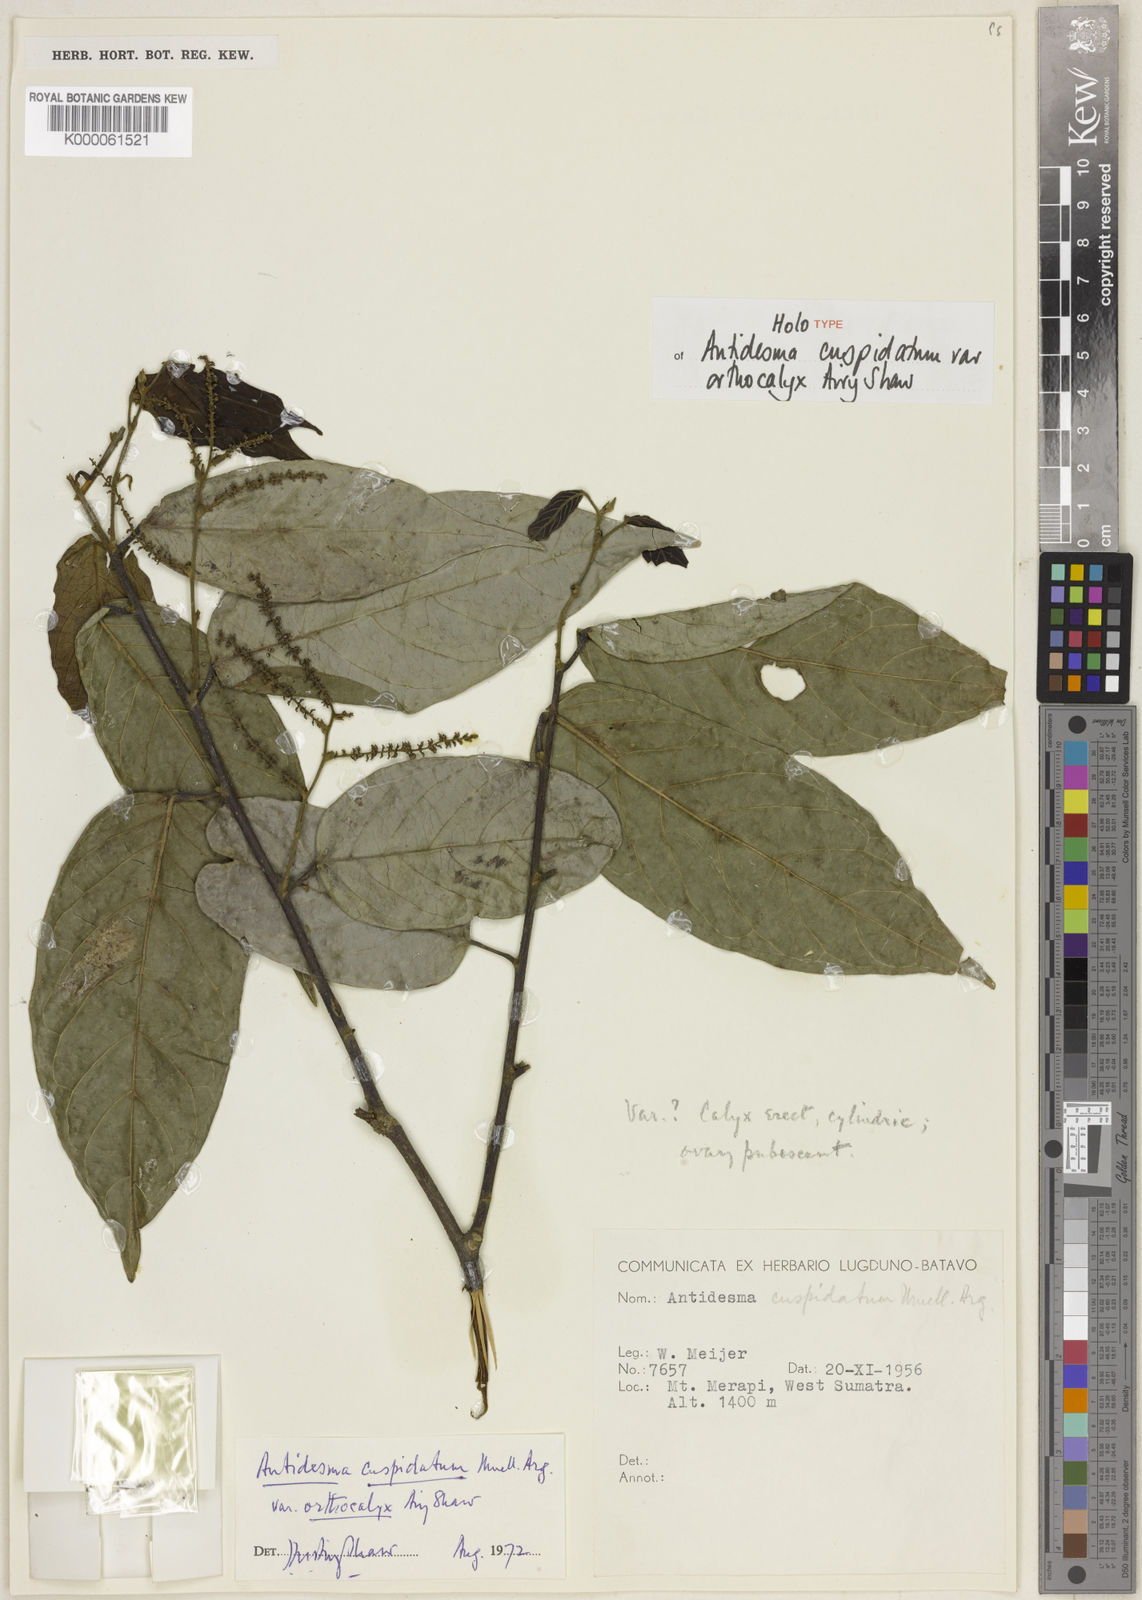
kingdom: Plantae
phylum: Tracheophyta
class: Magnoliopsida
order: Malpighiales
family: Phyllanthaceae
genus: Antidesma
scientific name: Antidesma
